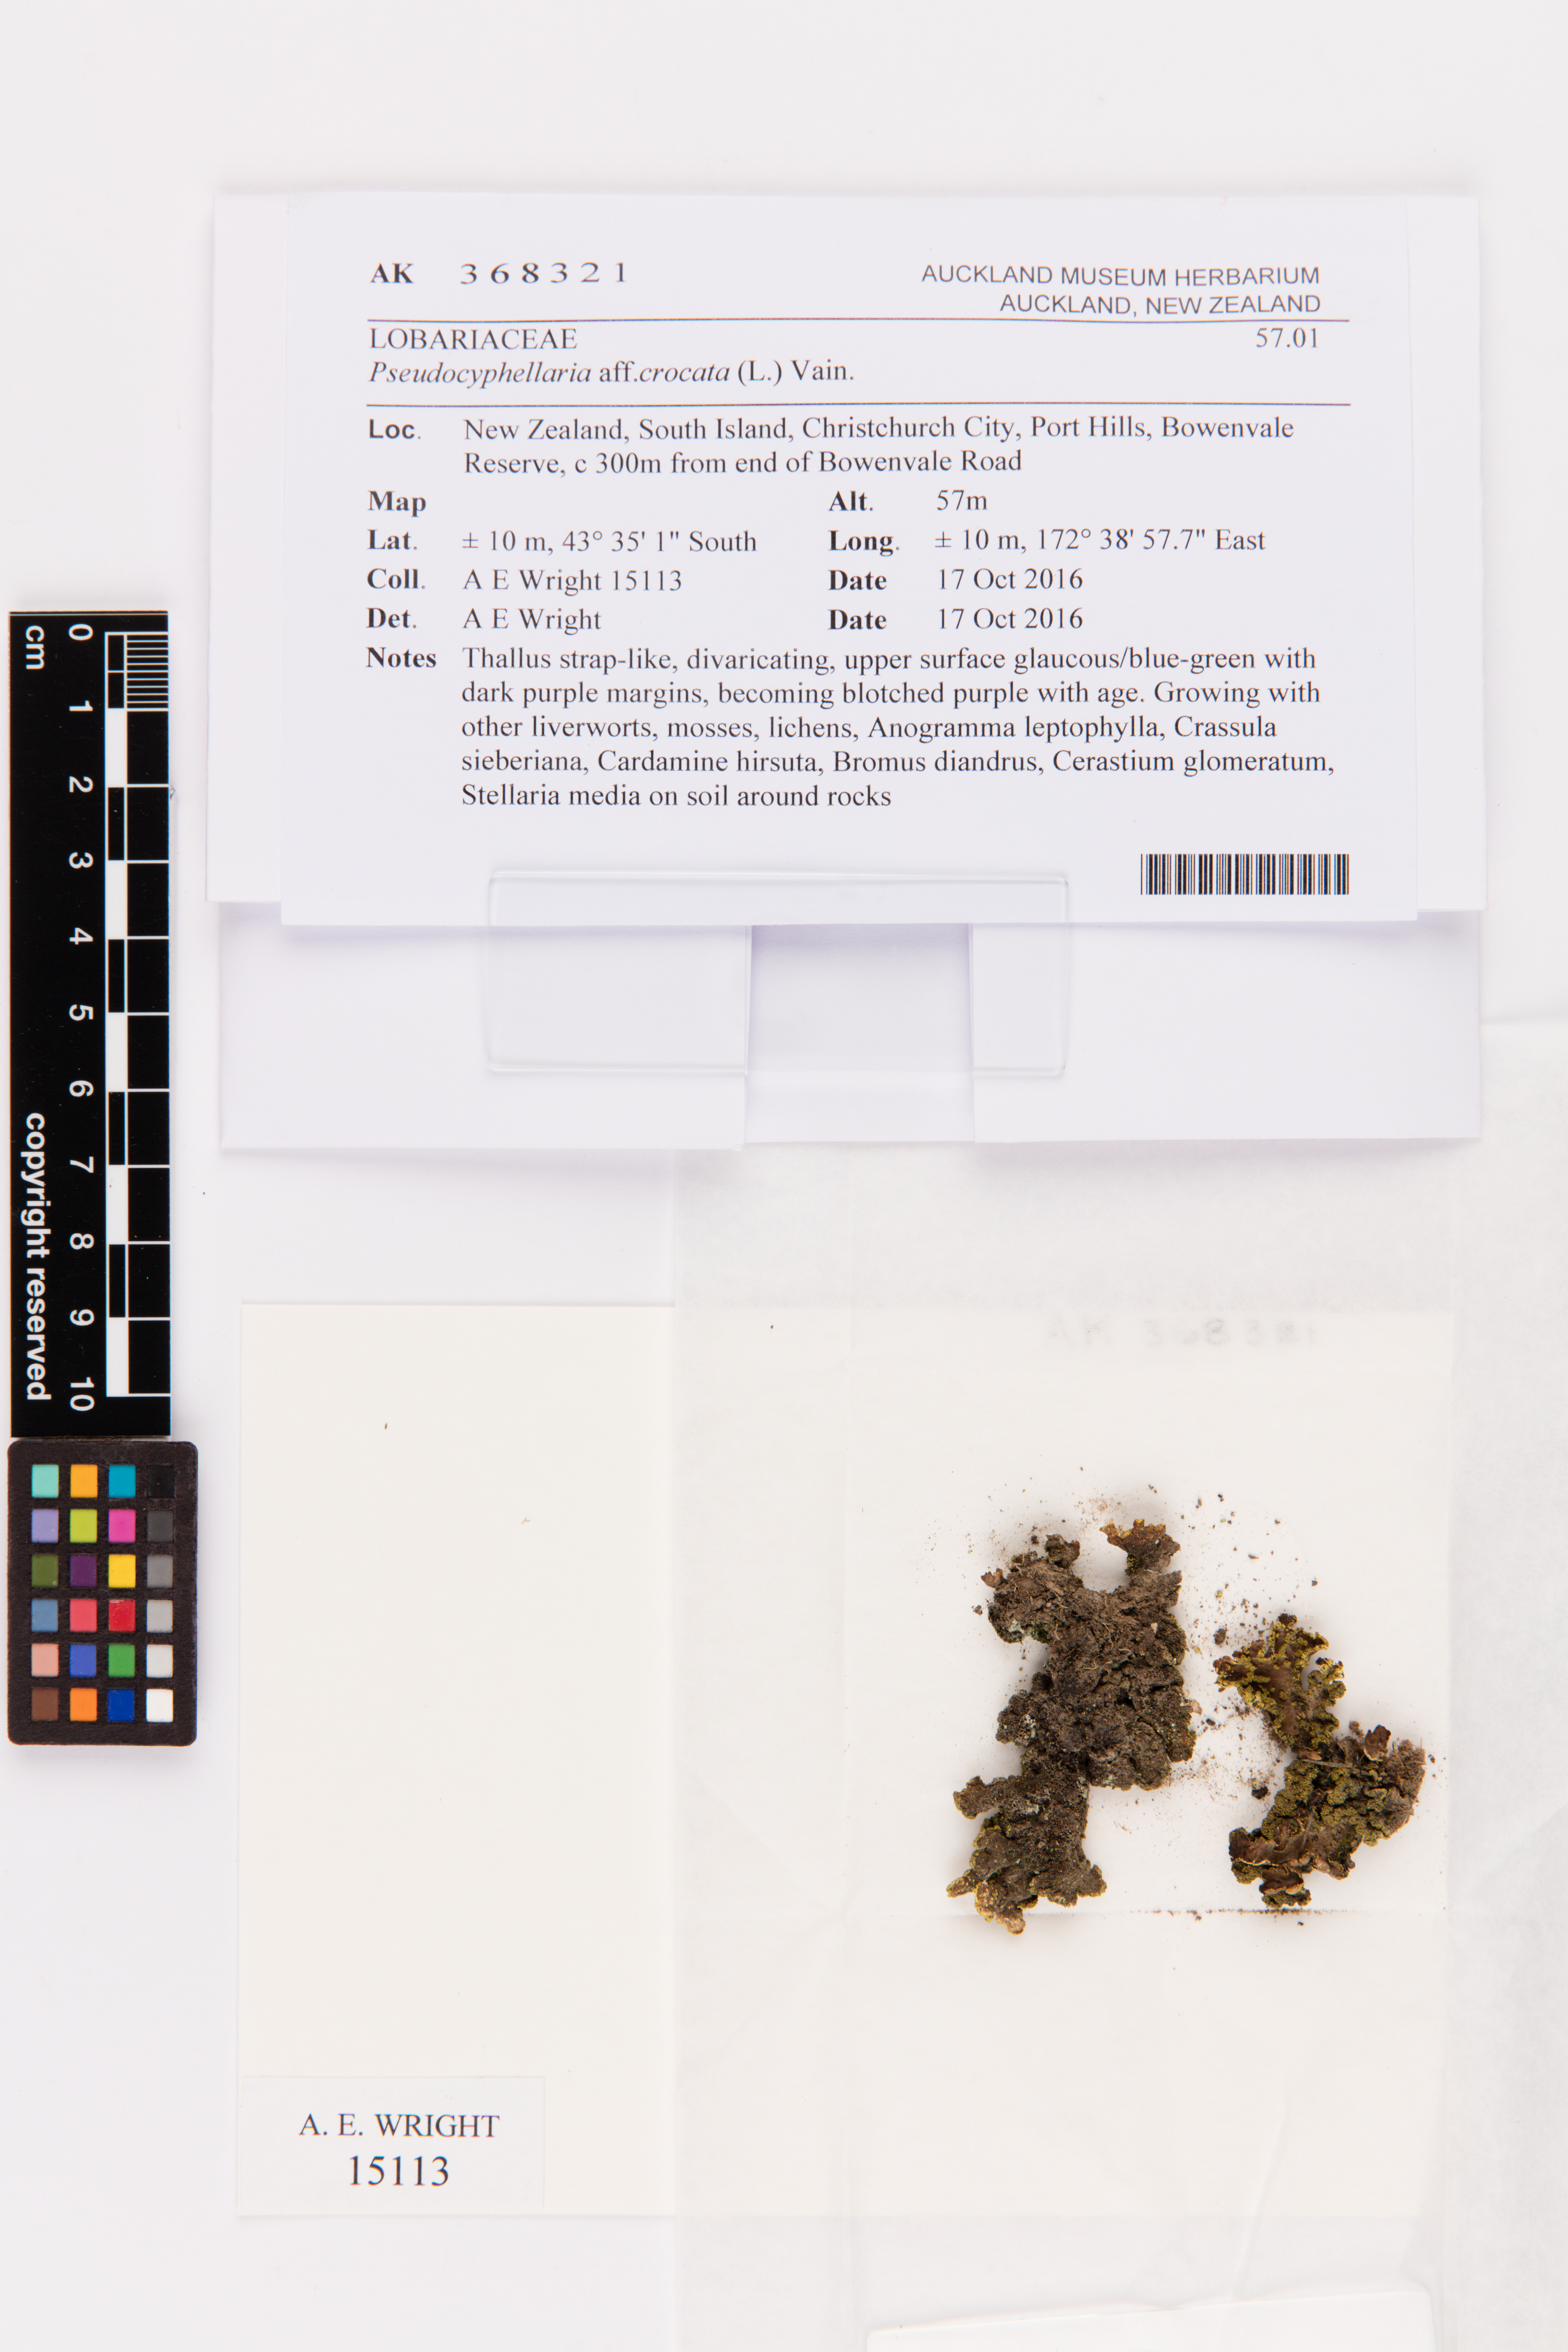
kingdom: Fungi
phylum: Ascomycota
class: Lecanoromycetes
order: Peltigerales
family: Lobariaceae
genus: Pseudocyphellaria
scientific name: Pseudocyphellaria crocata
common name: Golden specklebelly
